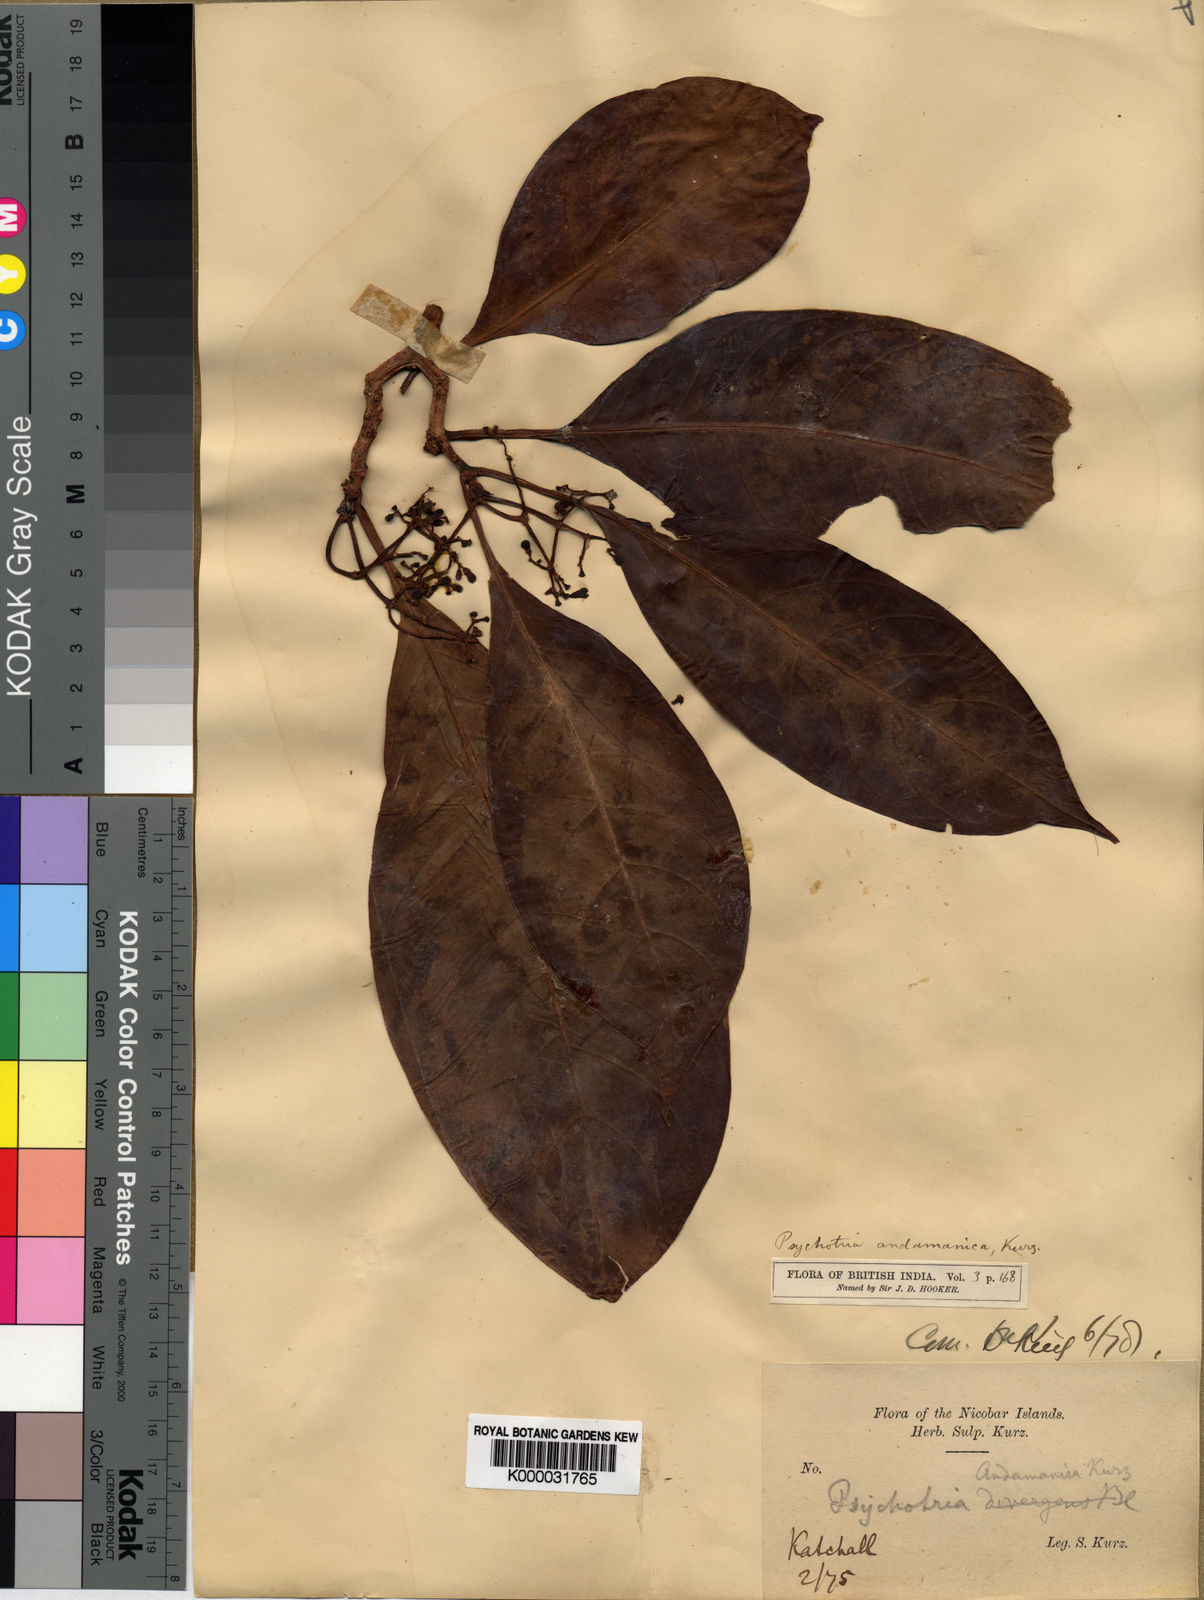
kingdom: Plantae
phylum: Tracheophyta
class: Magnoliopsida
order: Gentianales
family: Rubiaceae
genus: Psychotria
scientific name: Psychotria andamanica
